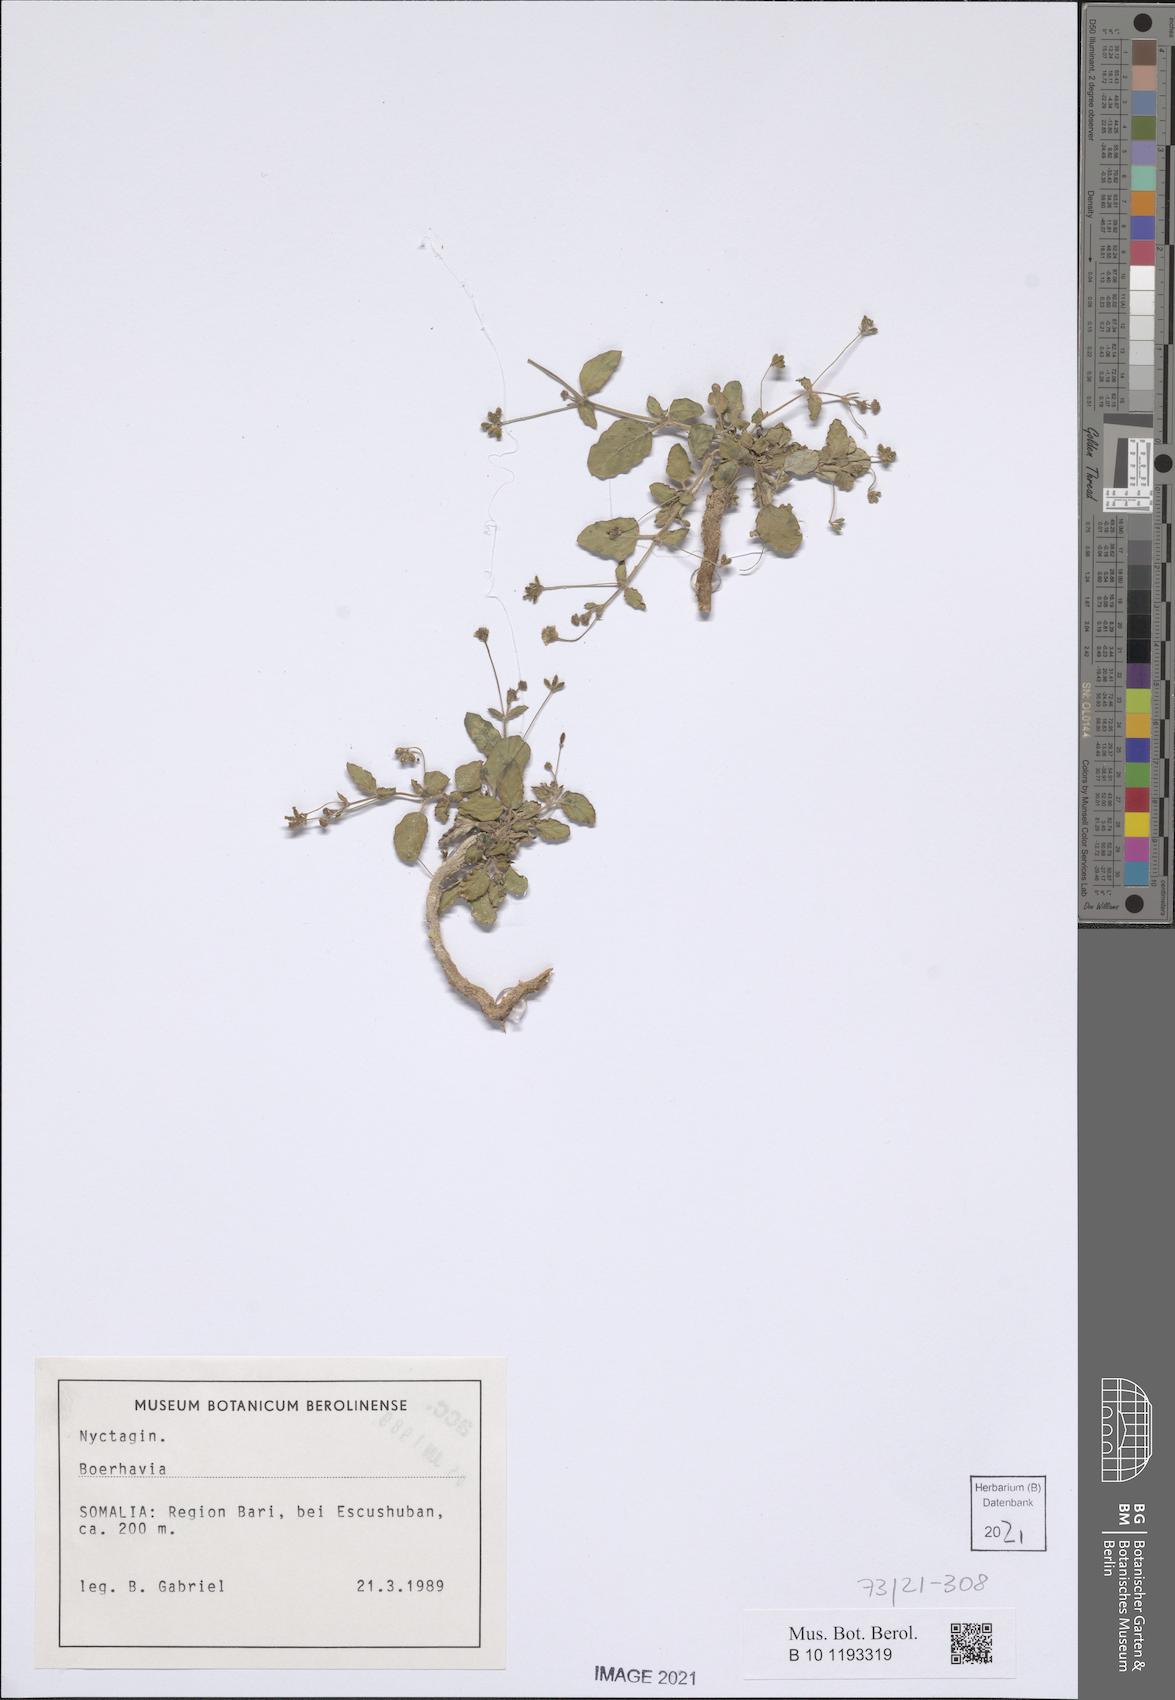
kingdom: Plantae
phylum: Tracheophyta
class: Magnoliopsida
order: Caryophyllales
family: Nyctaginaceae
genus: Boerhavia
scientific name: Boerhavia
